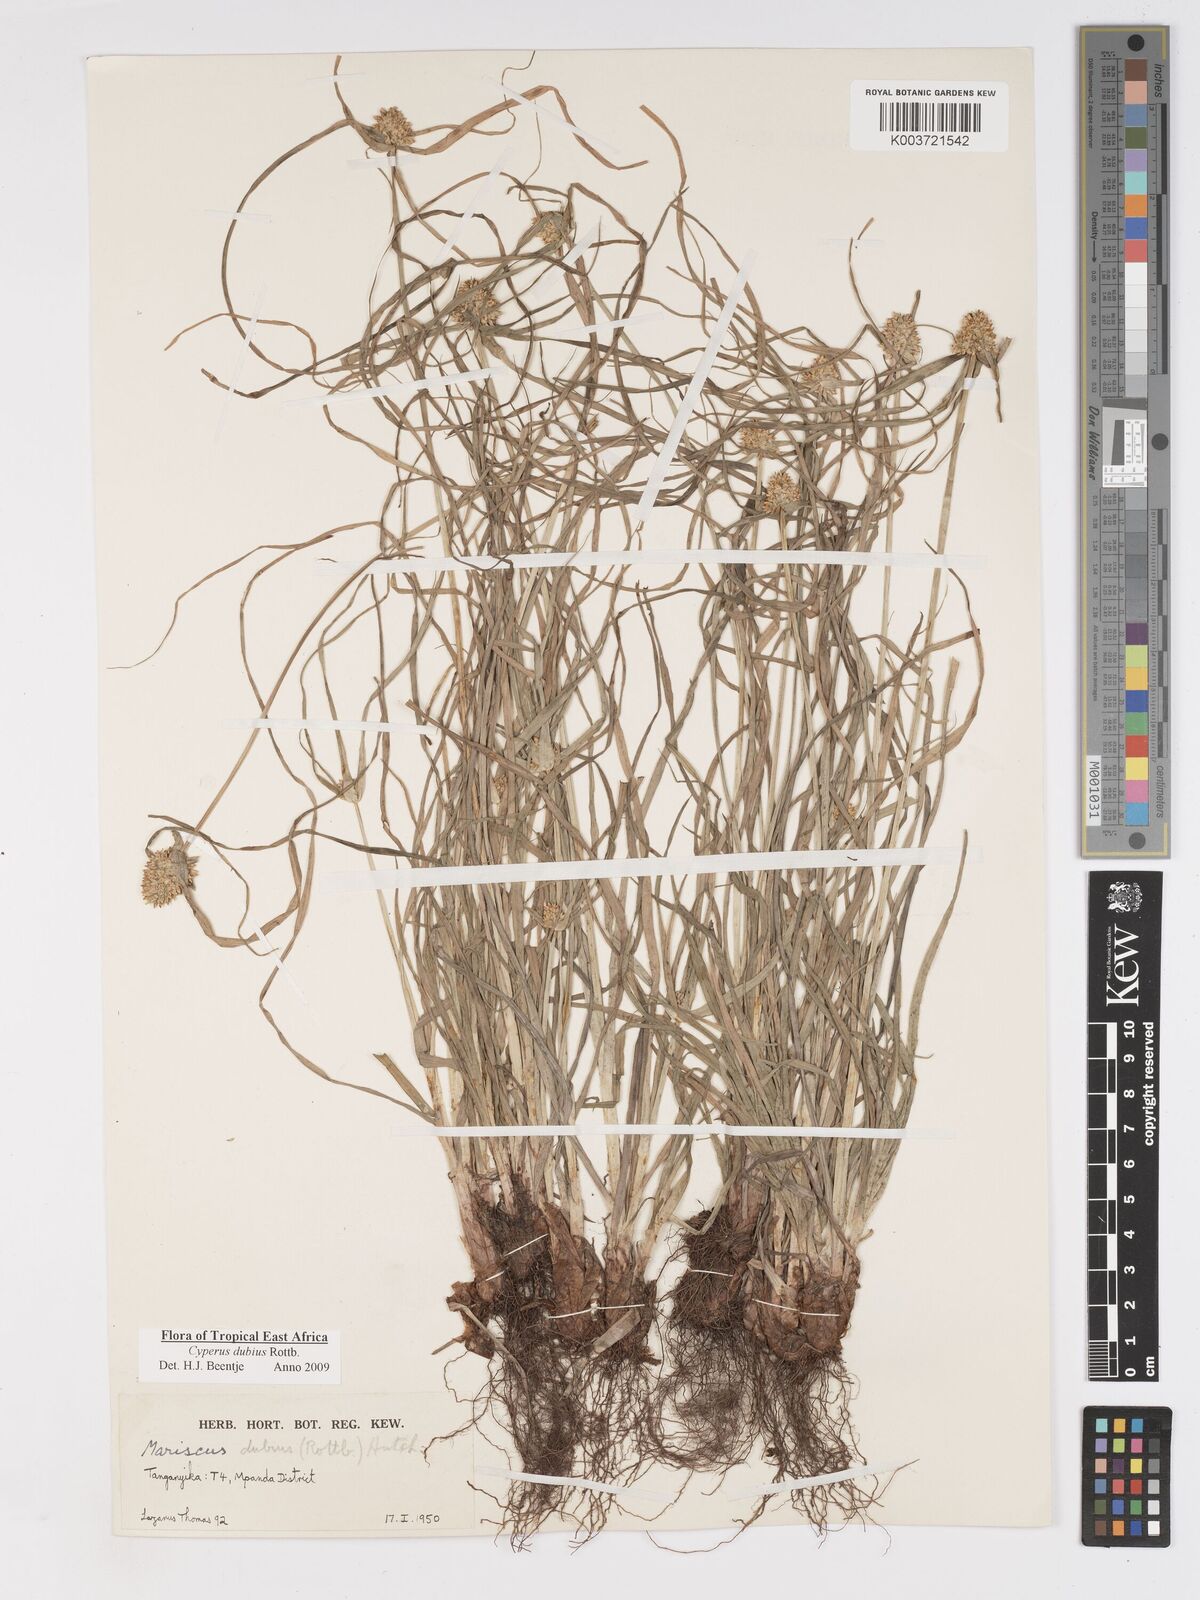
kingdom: Plantae
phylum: Tracheophyta
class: Liliopsida
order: Poales
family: Cyperaceae
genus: Cyperus
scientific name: Cyperus dubius
